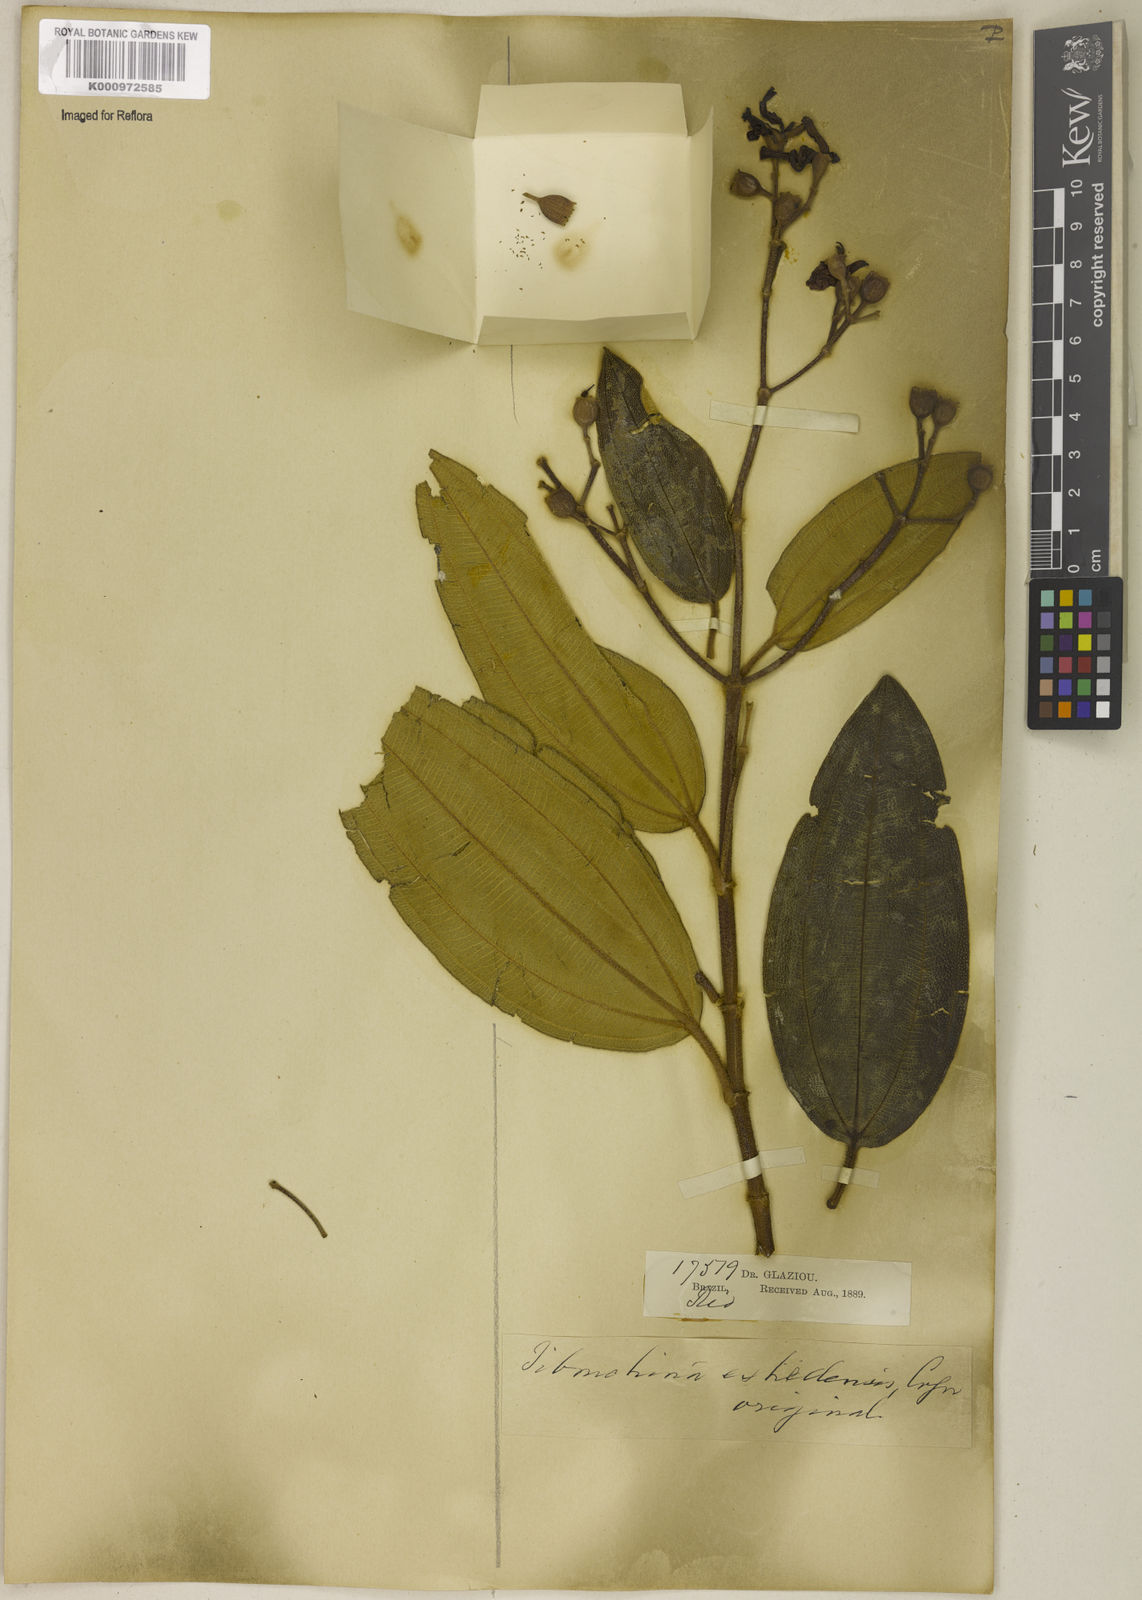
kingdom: Plantae
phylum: Tracheophyta
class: Magnoliopsida
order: Myrtales
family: Melastomataceae
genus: Pleroma
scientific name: Pleroma estrellense
